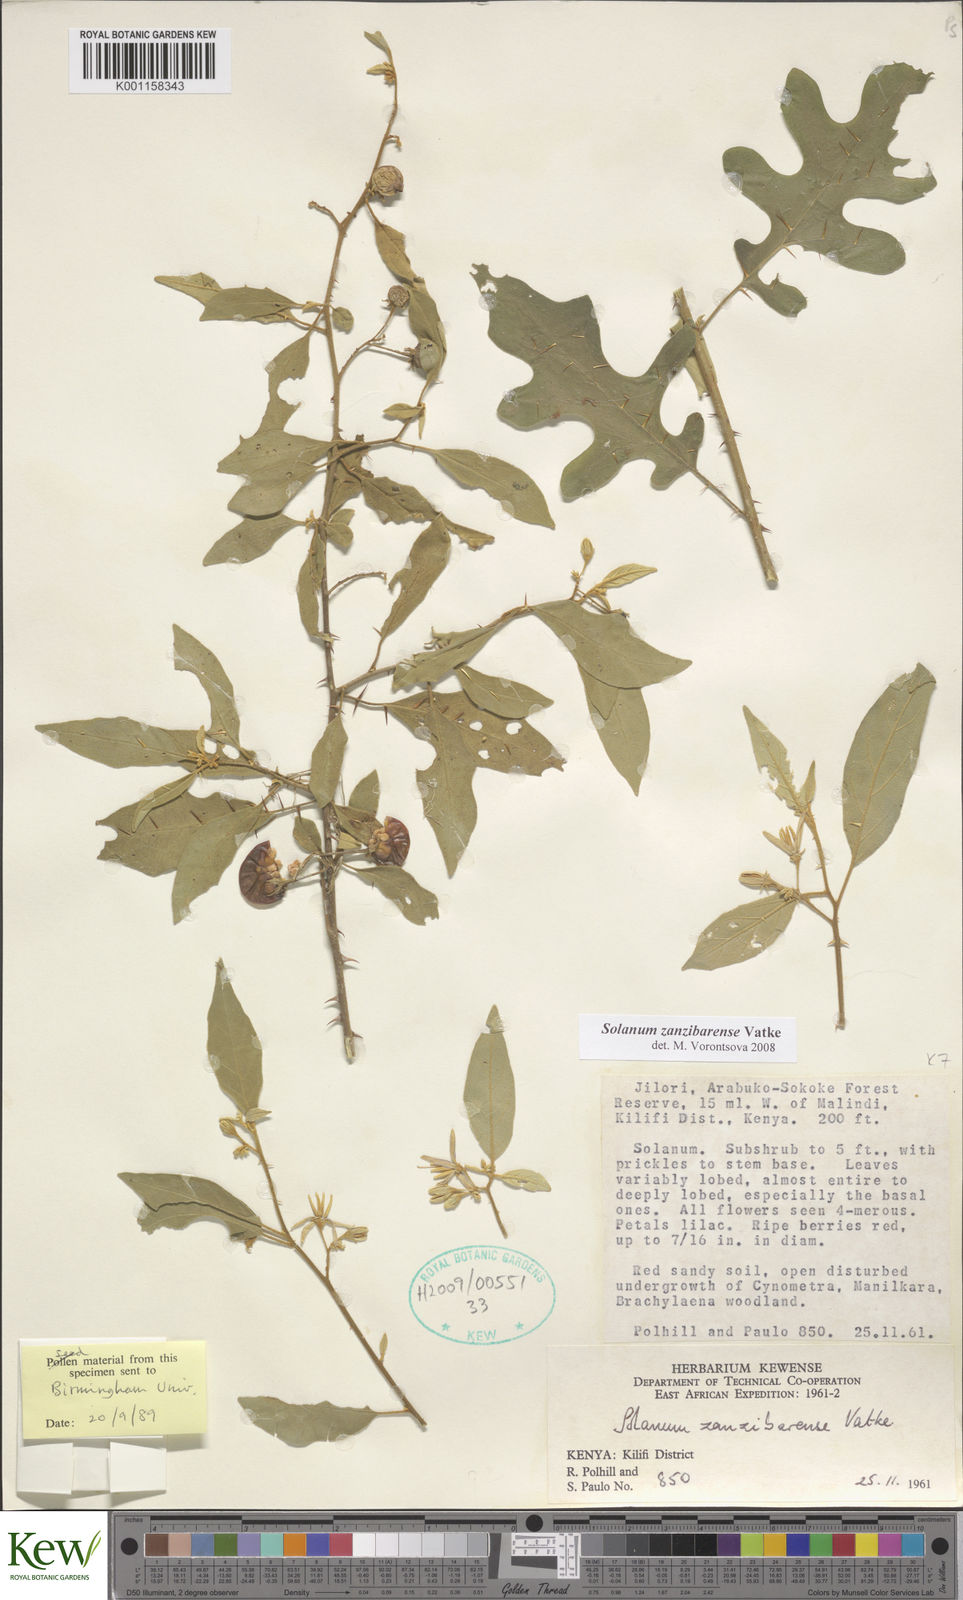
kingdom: Plantae
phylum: Tracheophyta
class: Magnoliopsida
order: Solanales
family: Solanaceae
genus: Solanum
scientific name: Solanum zanzibarense
